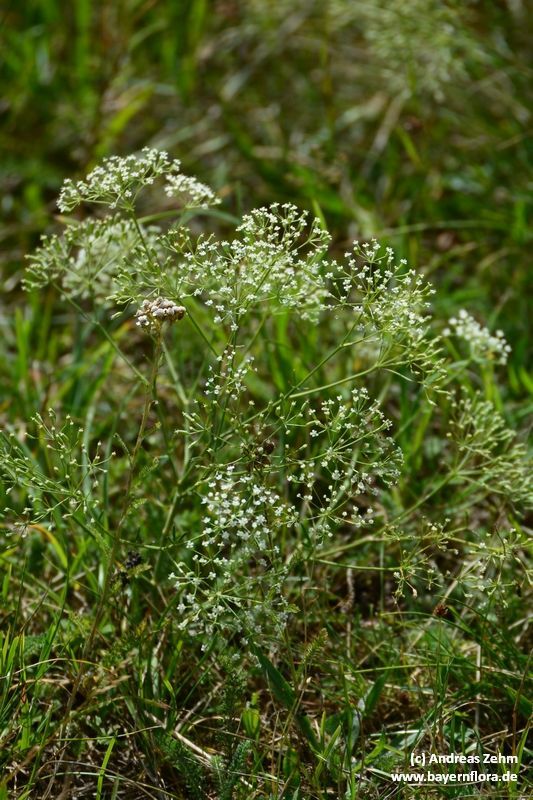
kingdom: Plantae
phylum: Tracheophyta
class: Magnoliopsida
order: Apiales
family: Apiaceae
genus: Falcaria
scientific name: Falcaria vulgaris
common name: Longleaf
